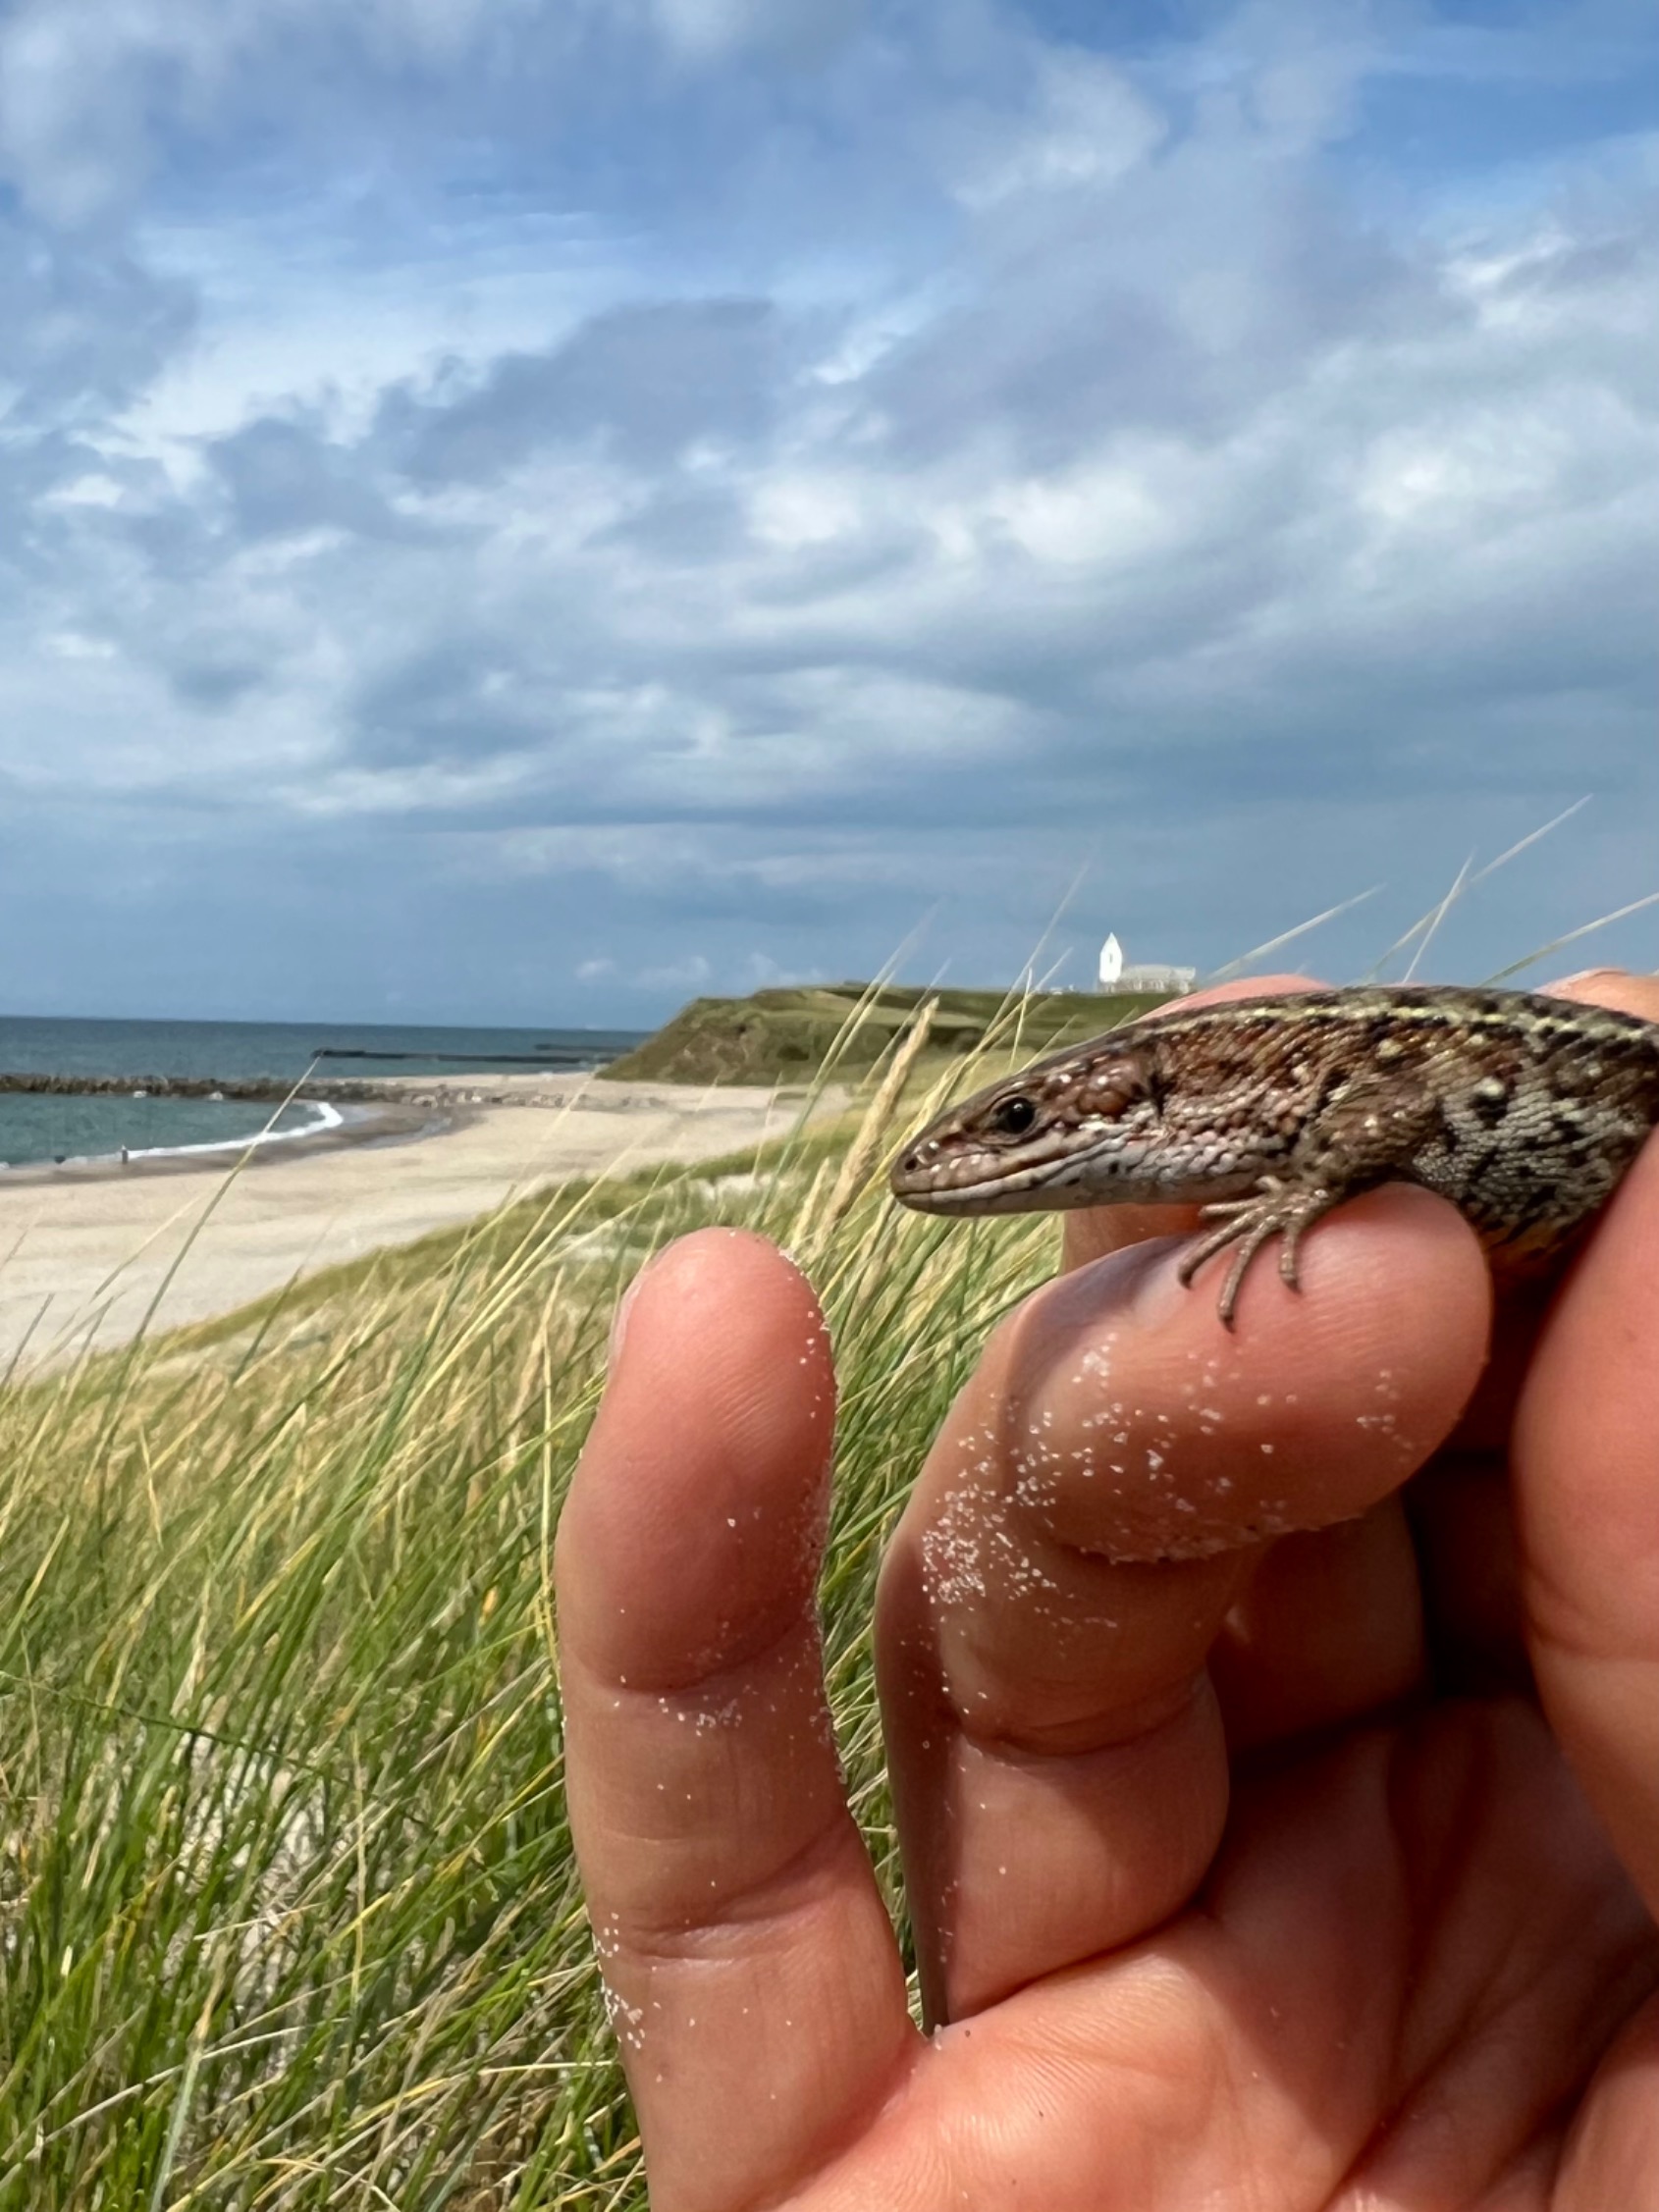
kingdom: Animalia
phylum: Chordata
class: Squamata
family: Lacertidae
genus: Zootoca
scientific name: Zootoca vivipara
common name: Skovfirben
